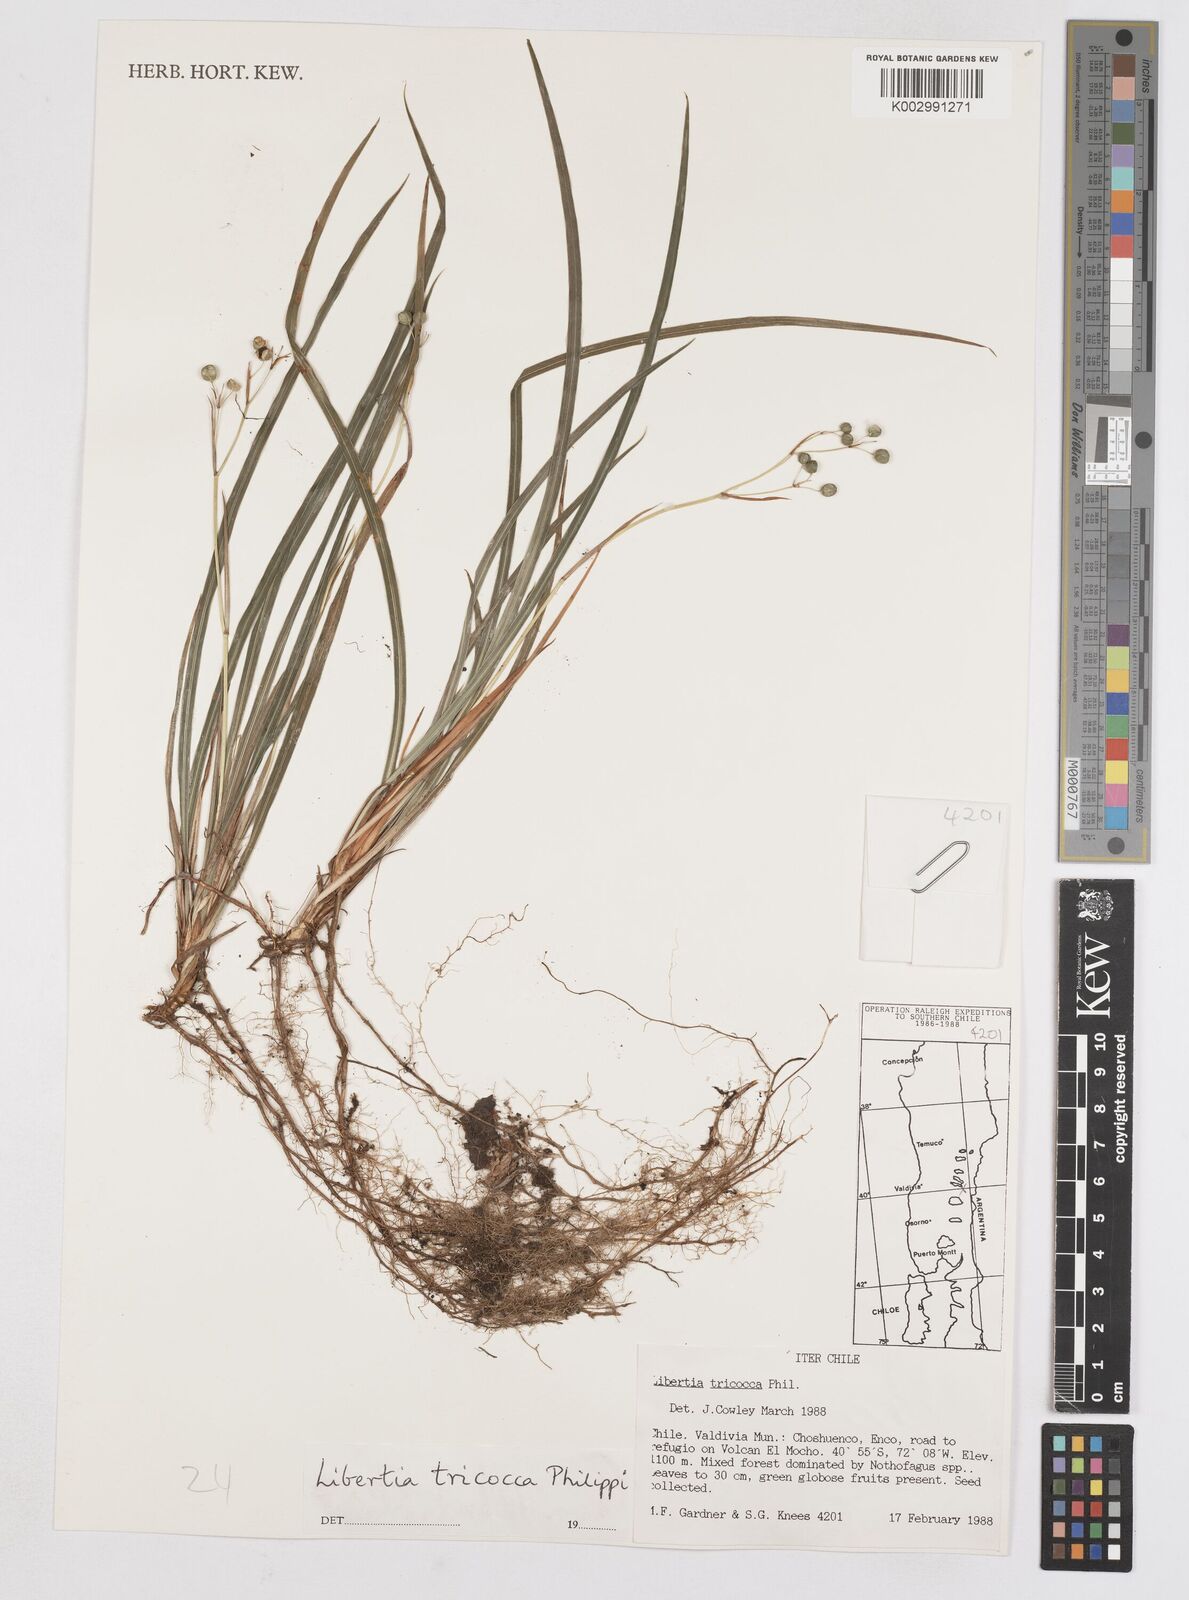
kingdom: Plantae
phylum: Tracheophyta
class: Liliopsida
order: Asparagales
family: Iridaceae
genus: Libertia
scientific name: Libertia tricocca
